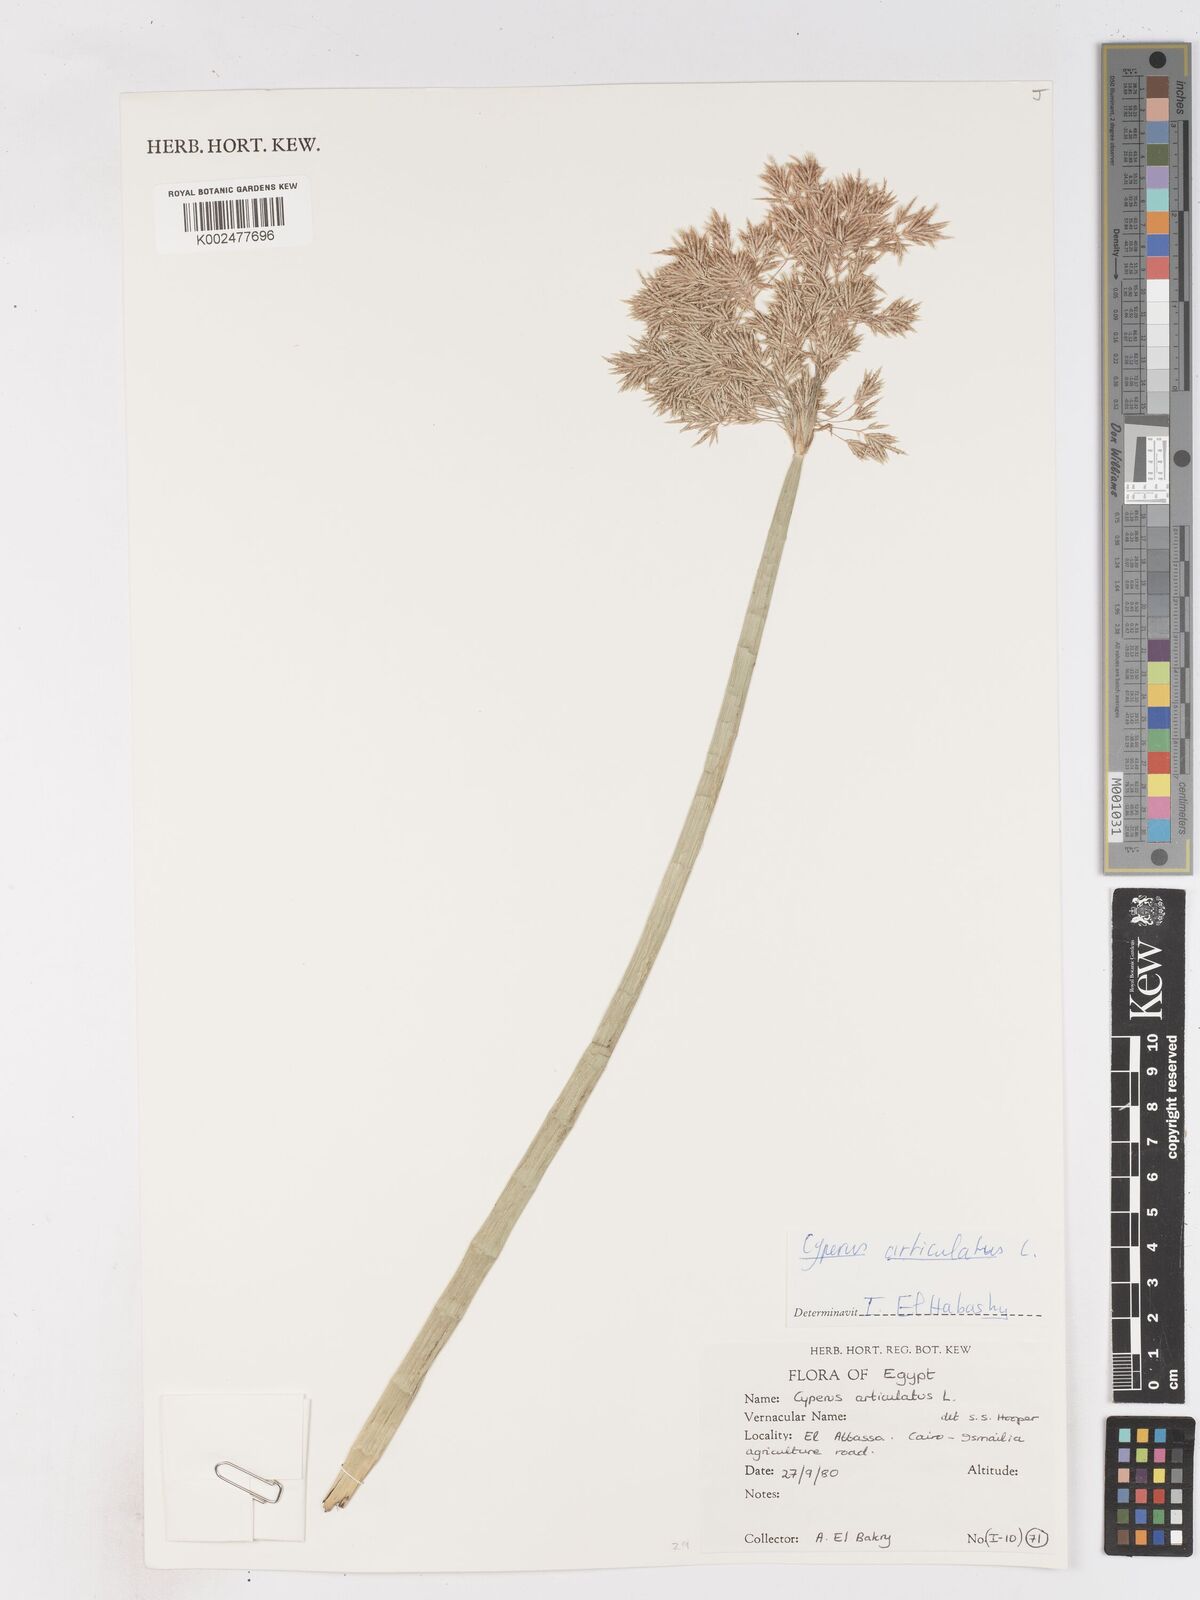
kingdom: Plantae
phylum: Tracheophyta
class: Liliopsida
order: Poales
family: Cyperaceae
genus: Cyperus
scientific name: Cyperus articulatus
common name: Jointed flatsedge
